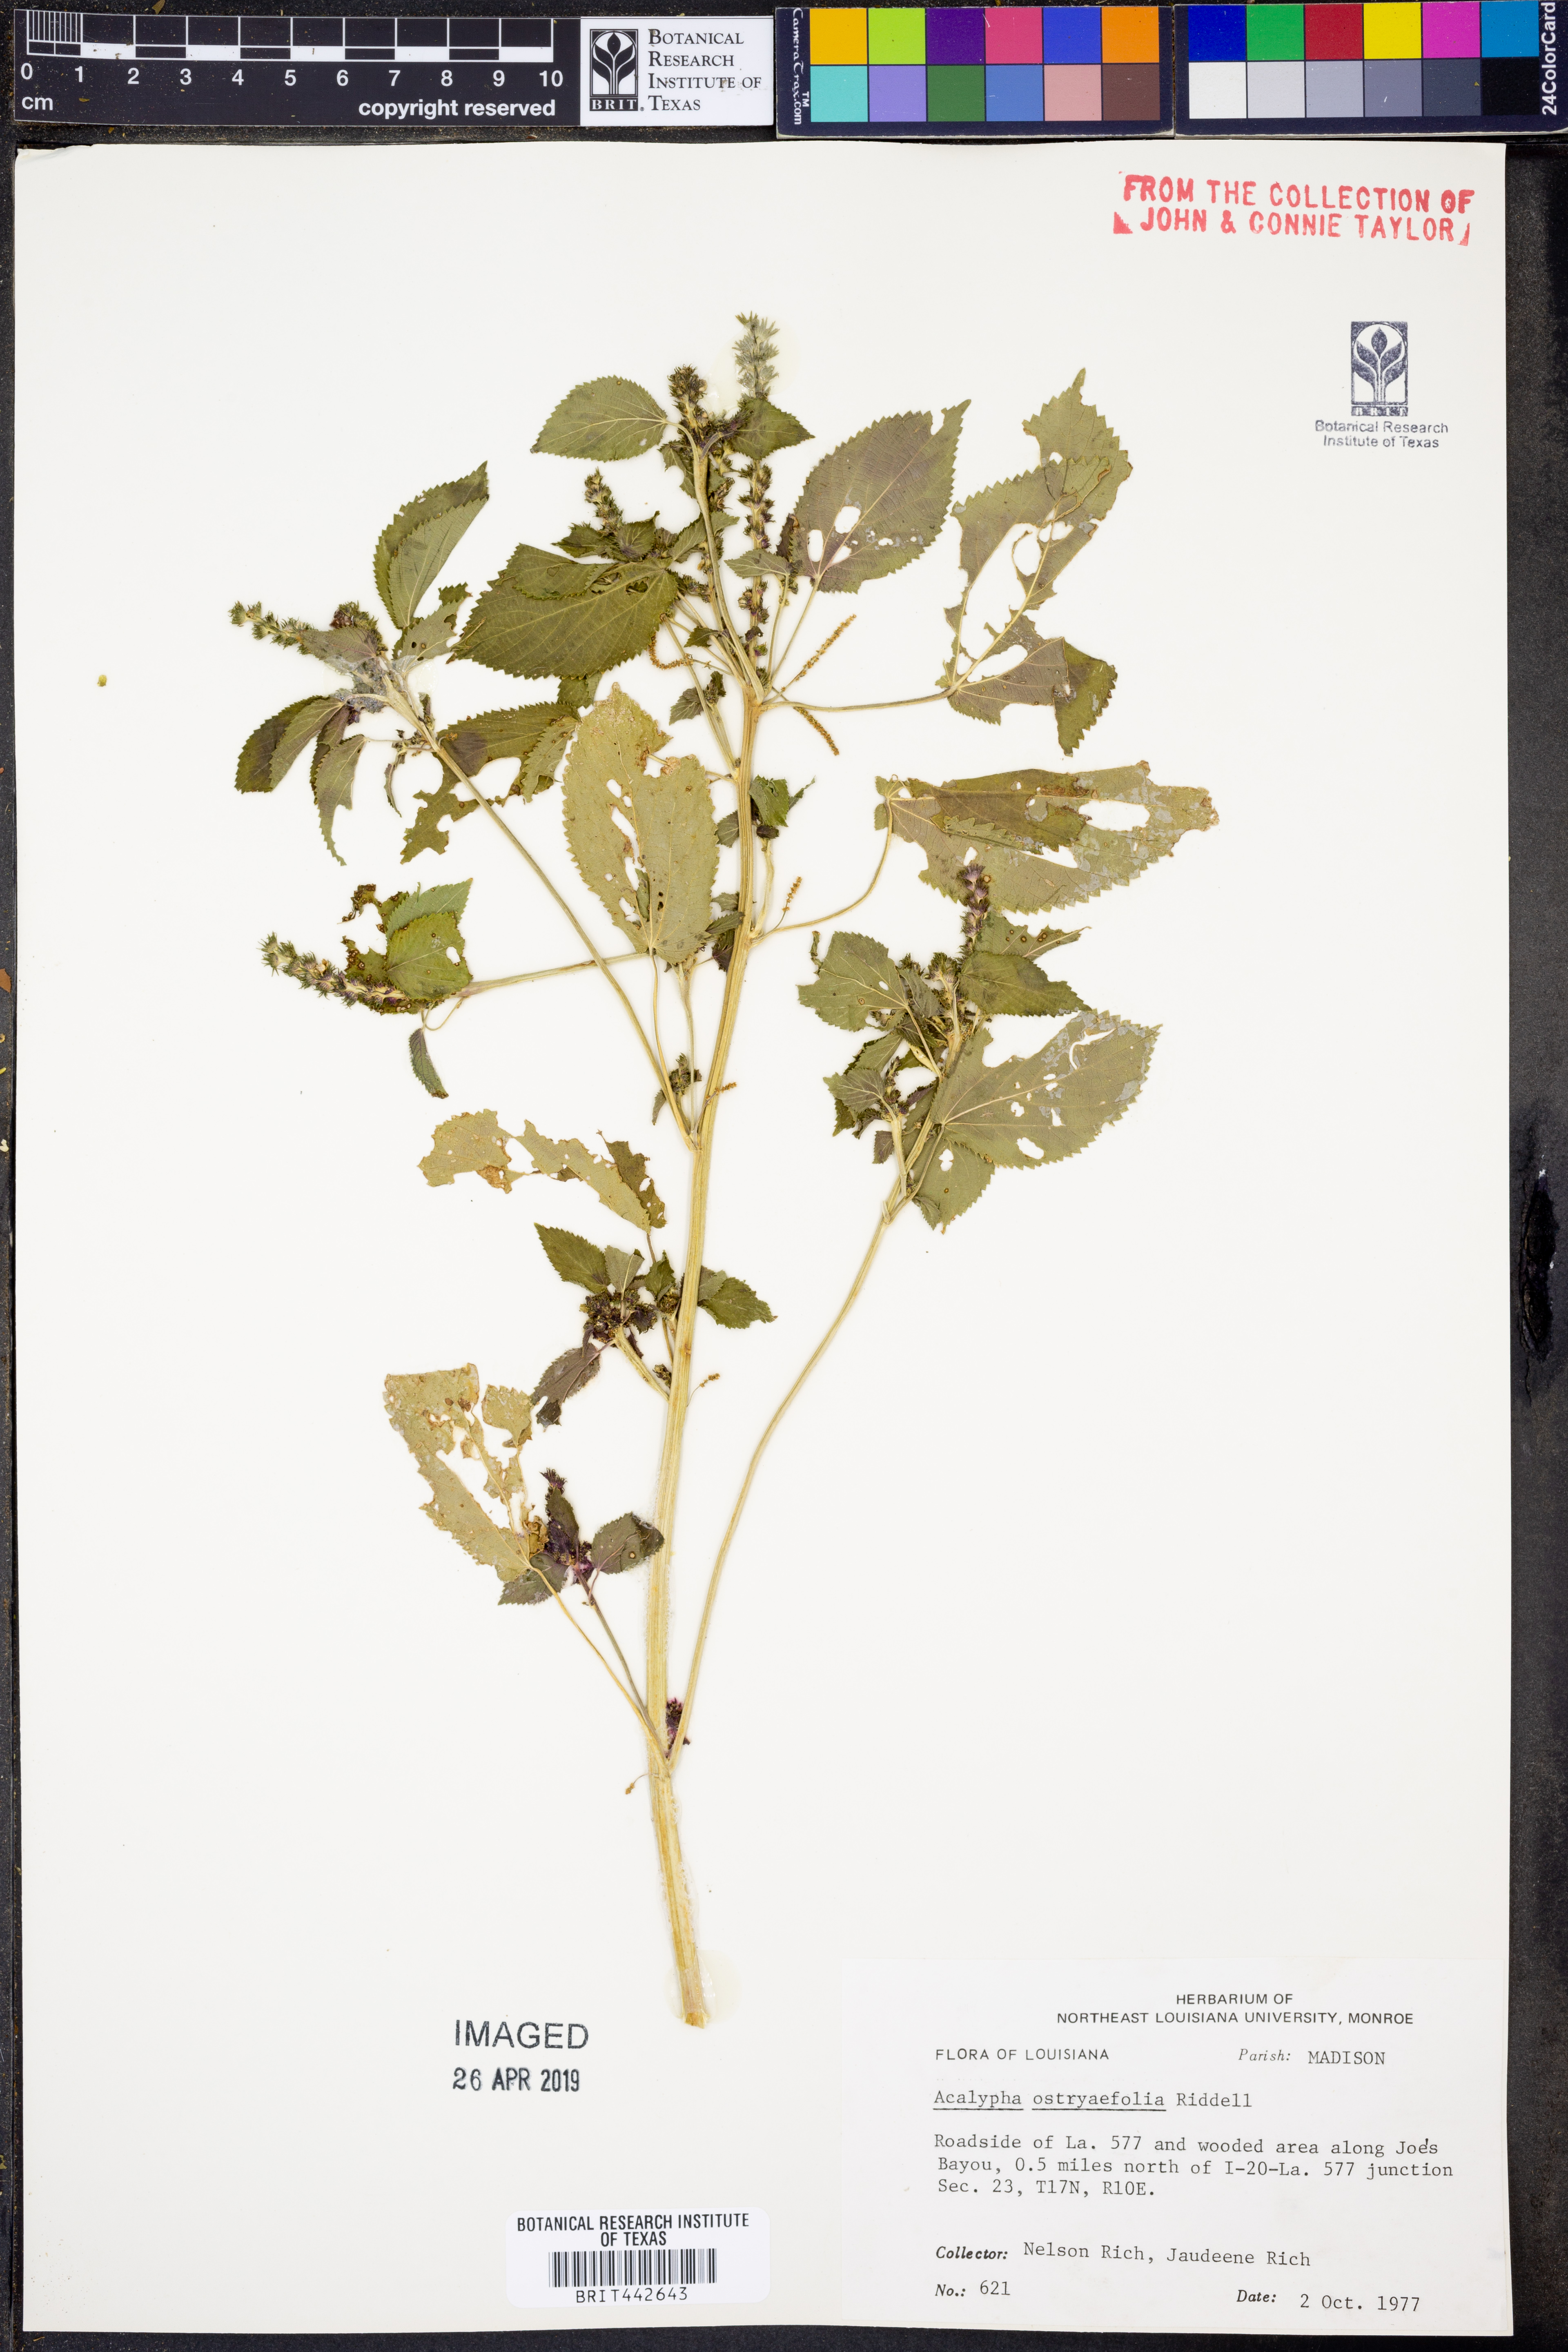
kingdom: Plantae
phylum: Tracheophyta
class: Magnoliopsida
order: Malpighiales
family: Euphorbiaceae
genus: Acalypha
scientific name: Acalypha ostryifolia
